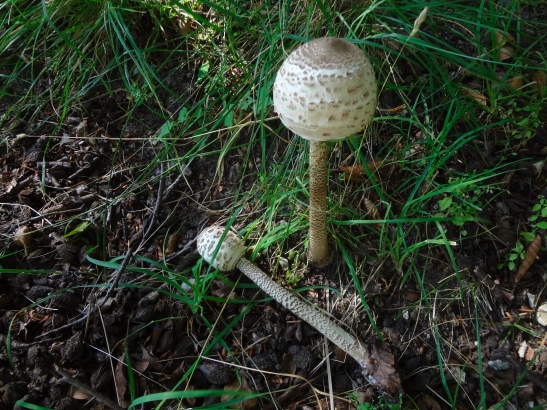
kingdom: Fungi
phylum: Basidiomycota
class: Agaricomycetes
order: Agaricales
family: Agaricaceae
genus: Macrolepiota
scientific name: Macrolepiota procera
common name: stor kæmpeparasolhat
